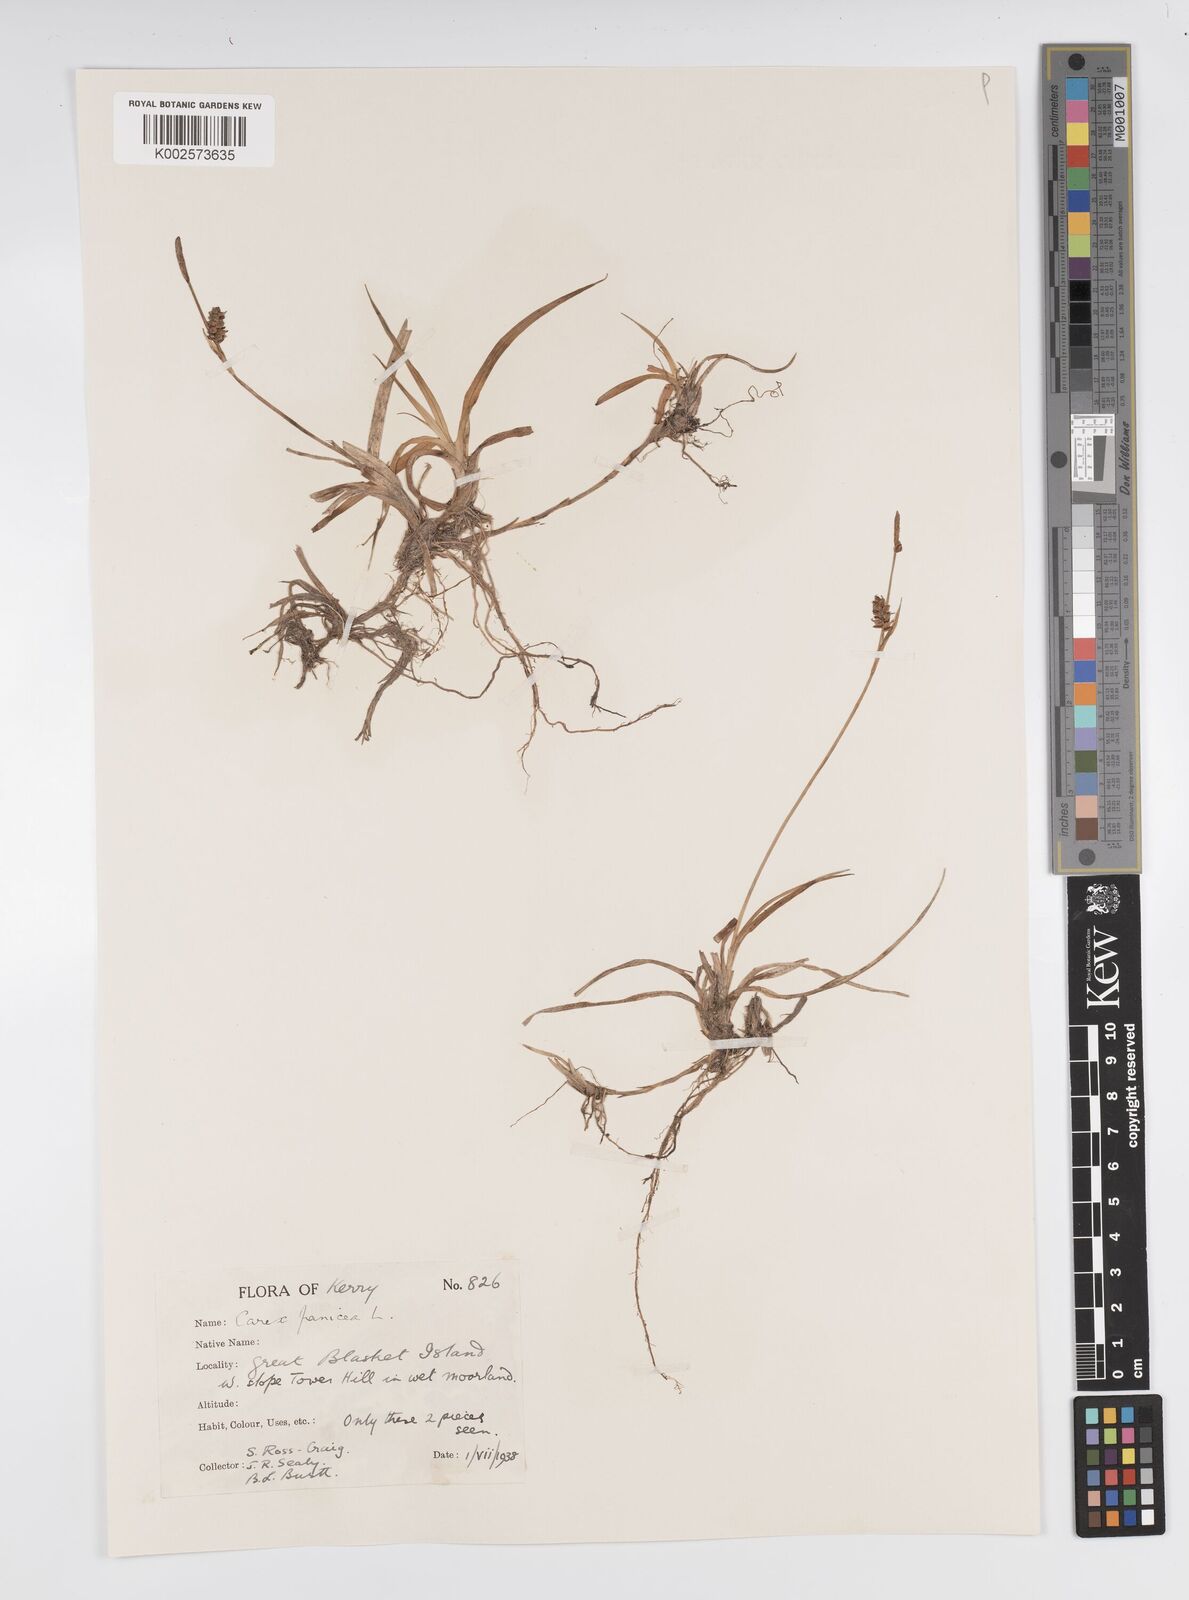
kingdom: Plantae
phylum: Tracheophyta
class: Liliopsida
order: Poales
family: Cyperaceae
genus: Carex
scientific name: Carex panicea
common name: Carnation sedge
